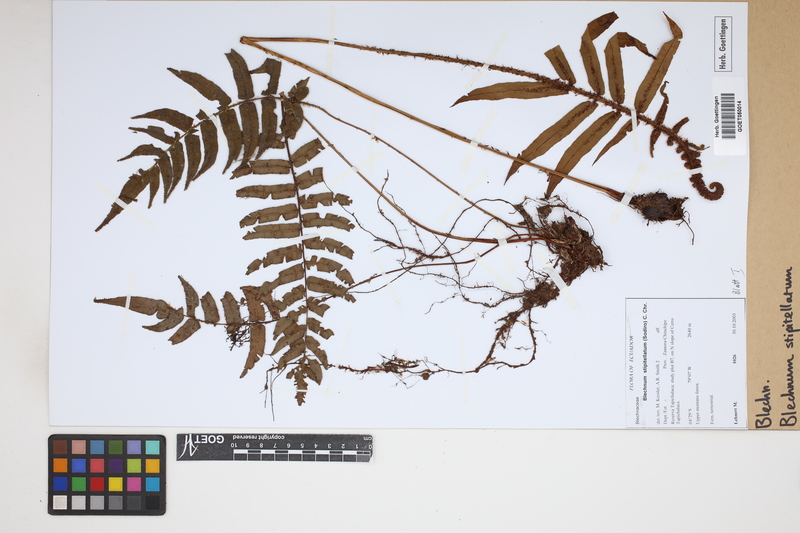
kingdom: Plantae
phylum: Tracheophyta
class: Polypodiopsida
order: Polypodiales
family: Blechnaceae
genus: Parablechnum
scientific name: Parablechnum stipitellatum
